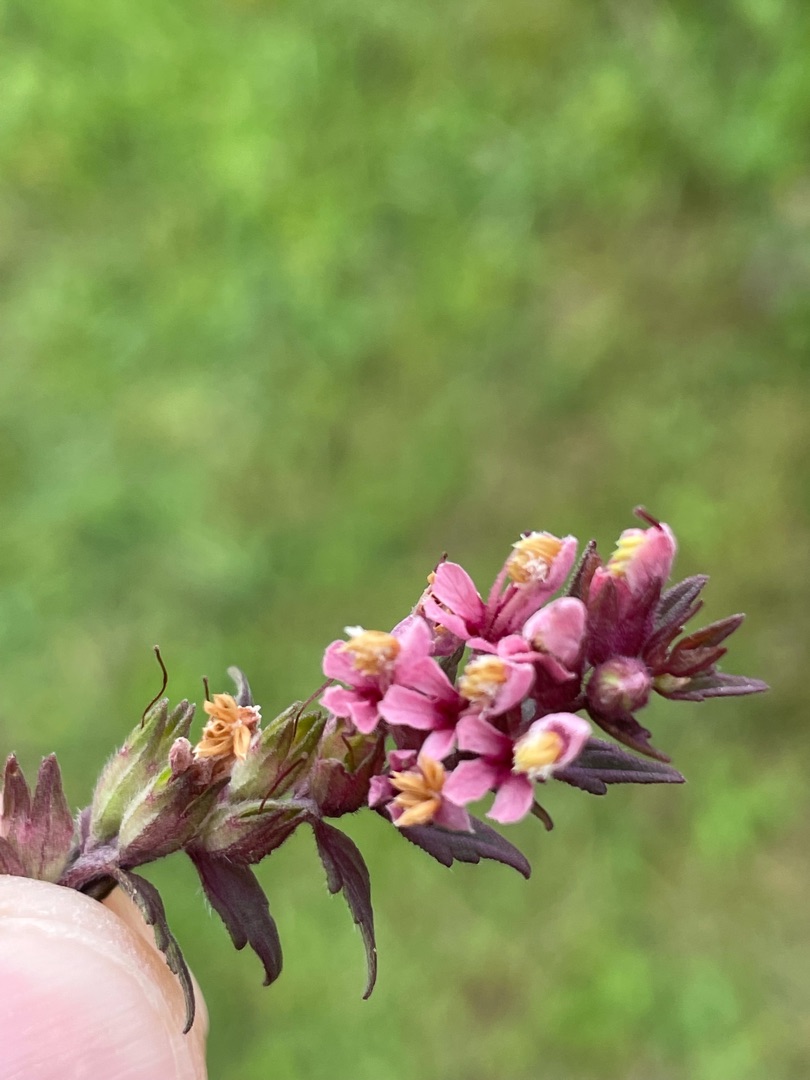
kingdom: Plantae
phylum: Tracheophyta
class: Magnoliopsida
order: Lamiales
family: Orobanchaceae
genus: Odontites
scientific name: Odontites vulgaris
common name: Høst-rødtop
